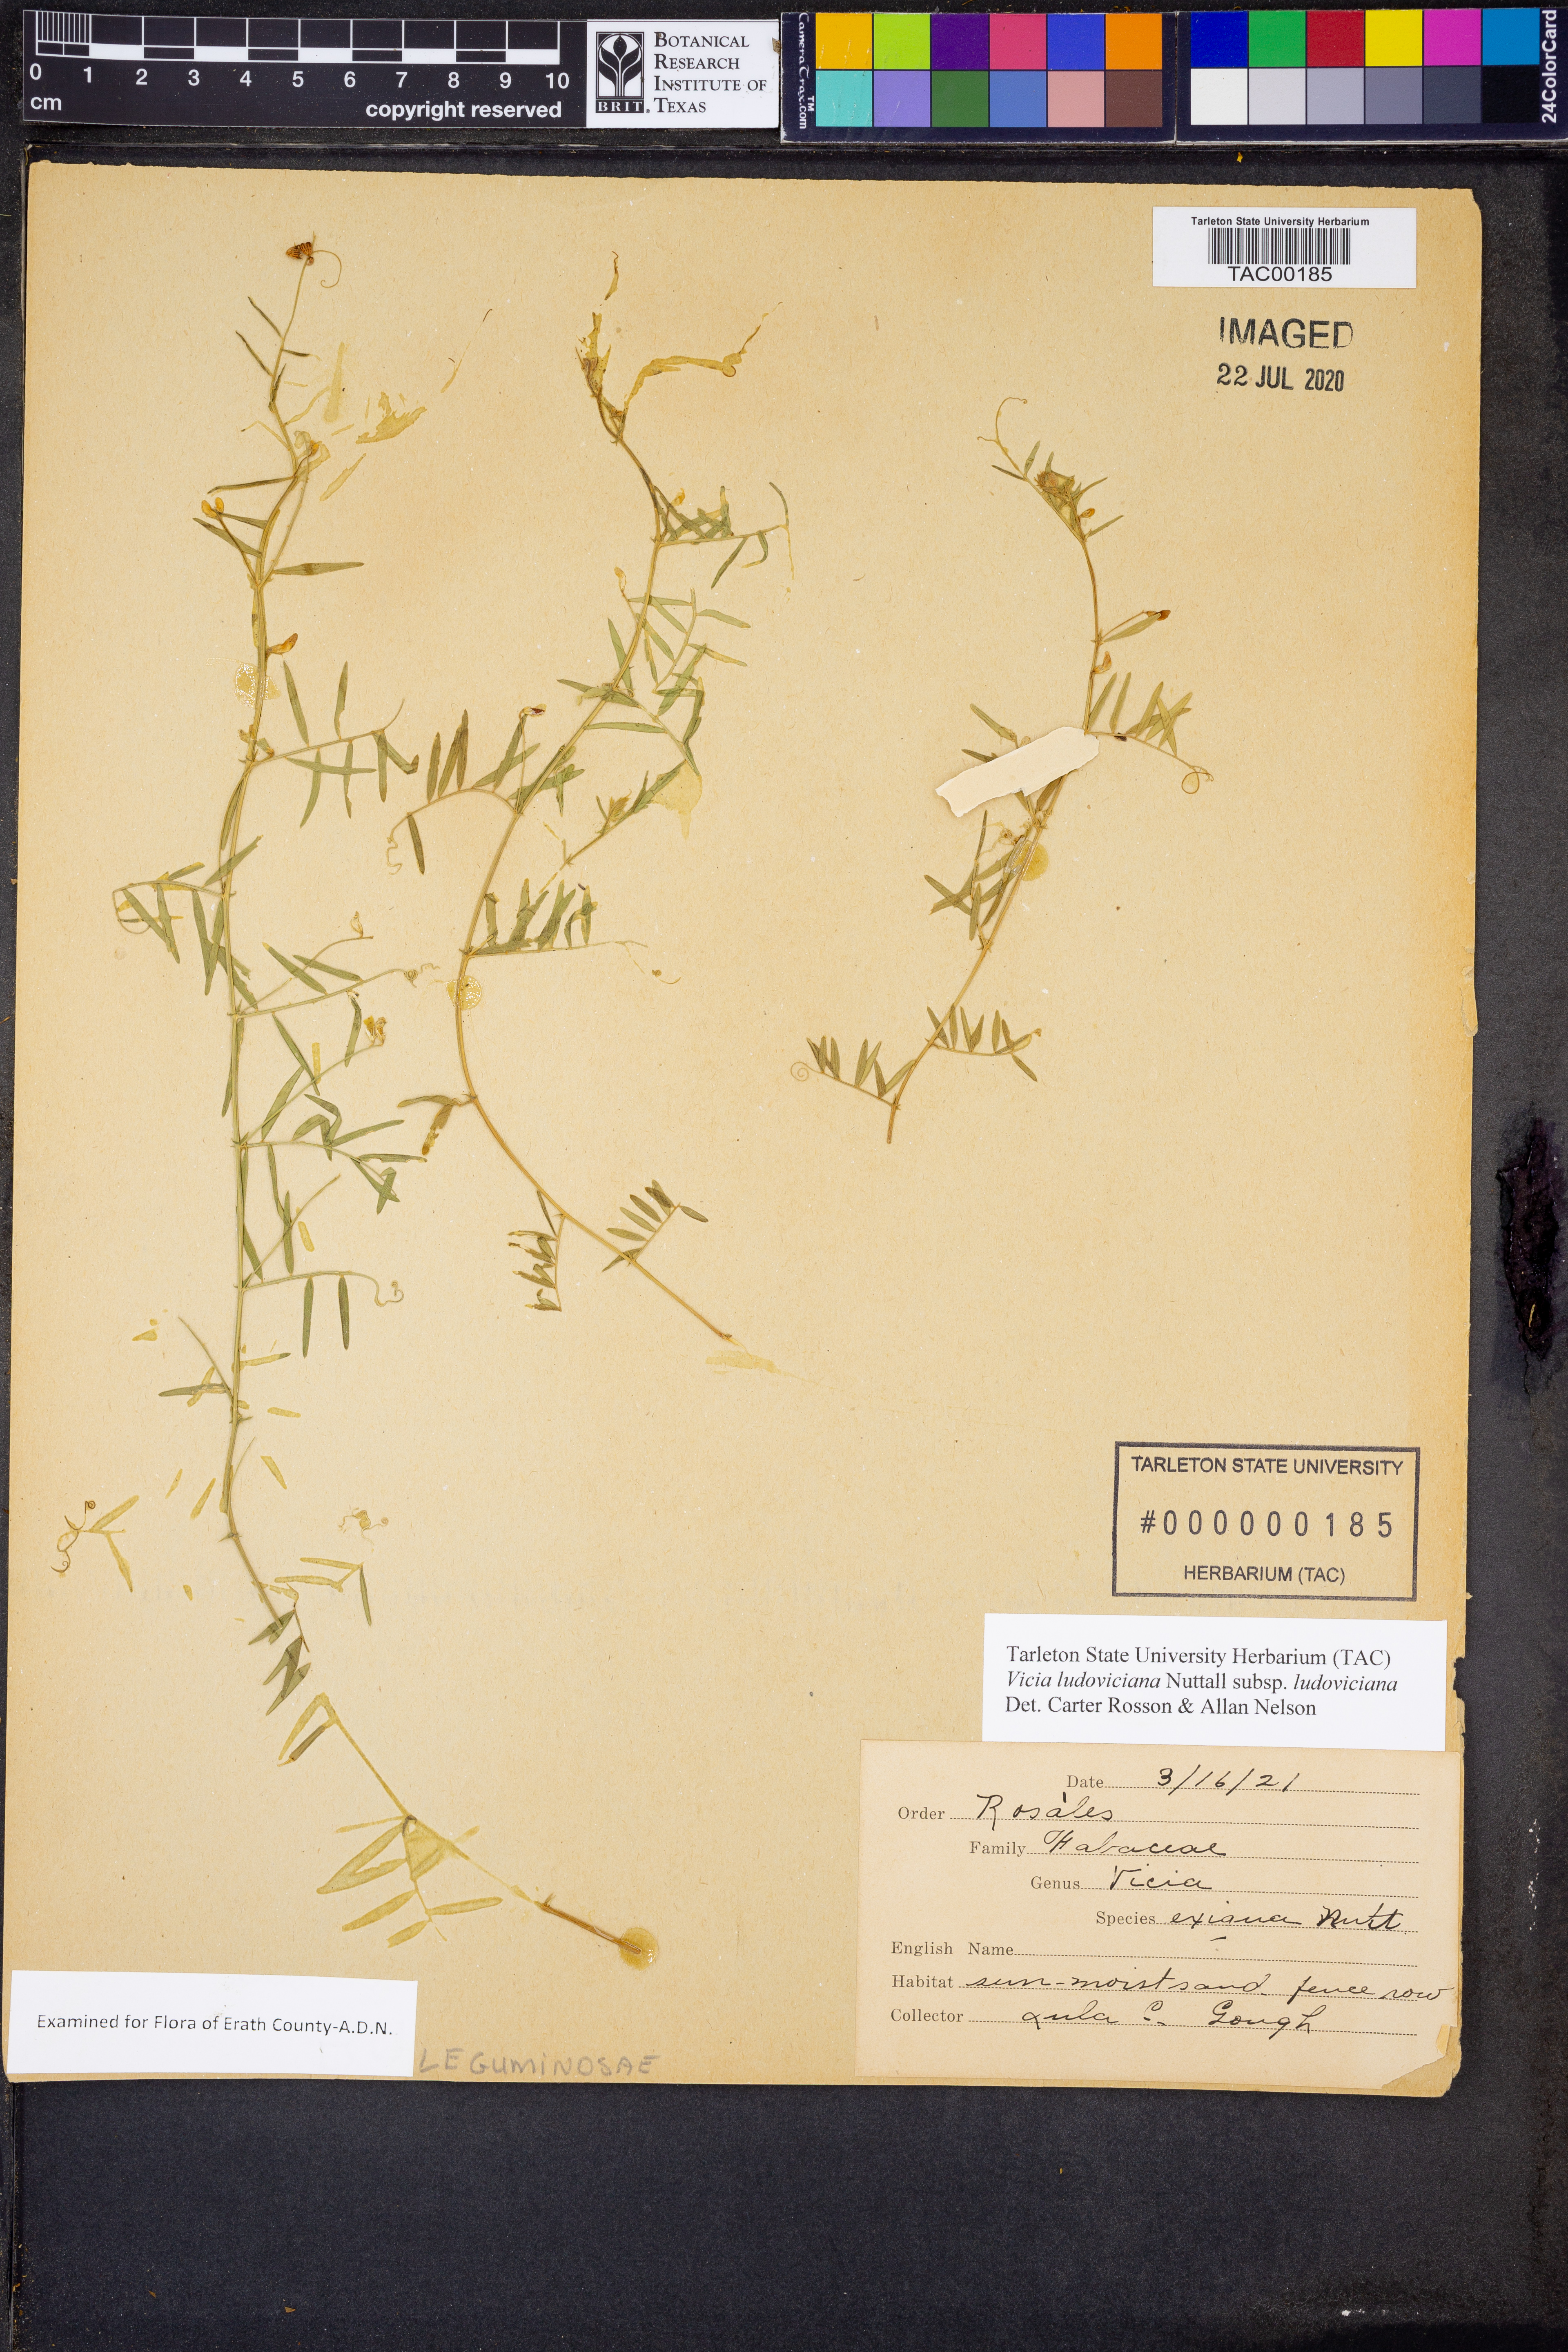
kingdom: Plantae
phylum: Tracheophyta
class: Magnoliopsida
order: Fabales
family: Fabaceae
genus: Vicia
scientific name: Vicia ludoviciana
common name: Louisiana vetch
